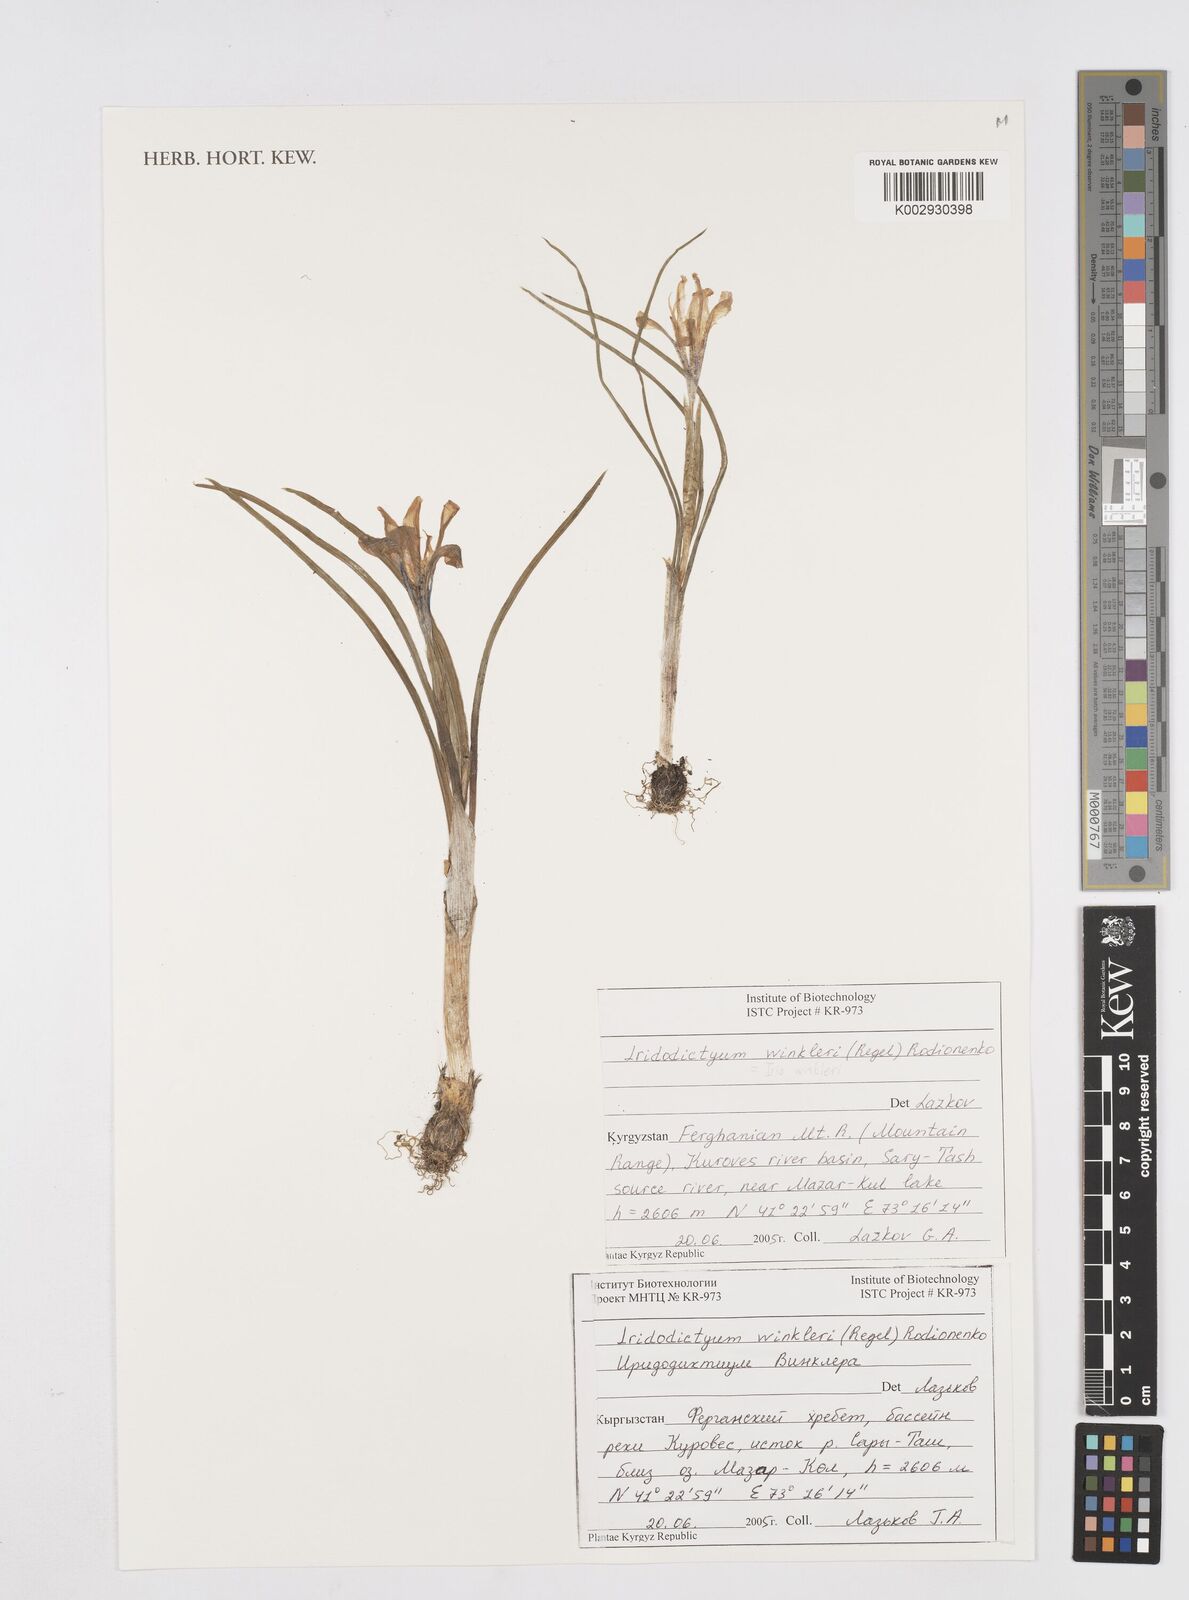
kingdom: Plantae
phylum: Tracheophyta
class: Liliopsida
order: Asparagales
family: Iridaceae
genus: Iris
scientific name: Iris winkleri
